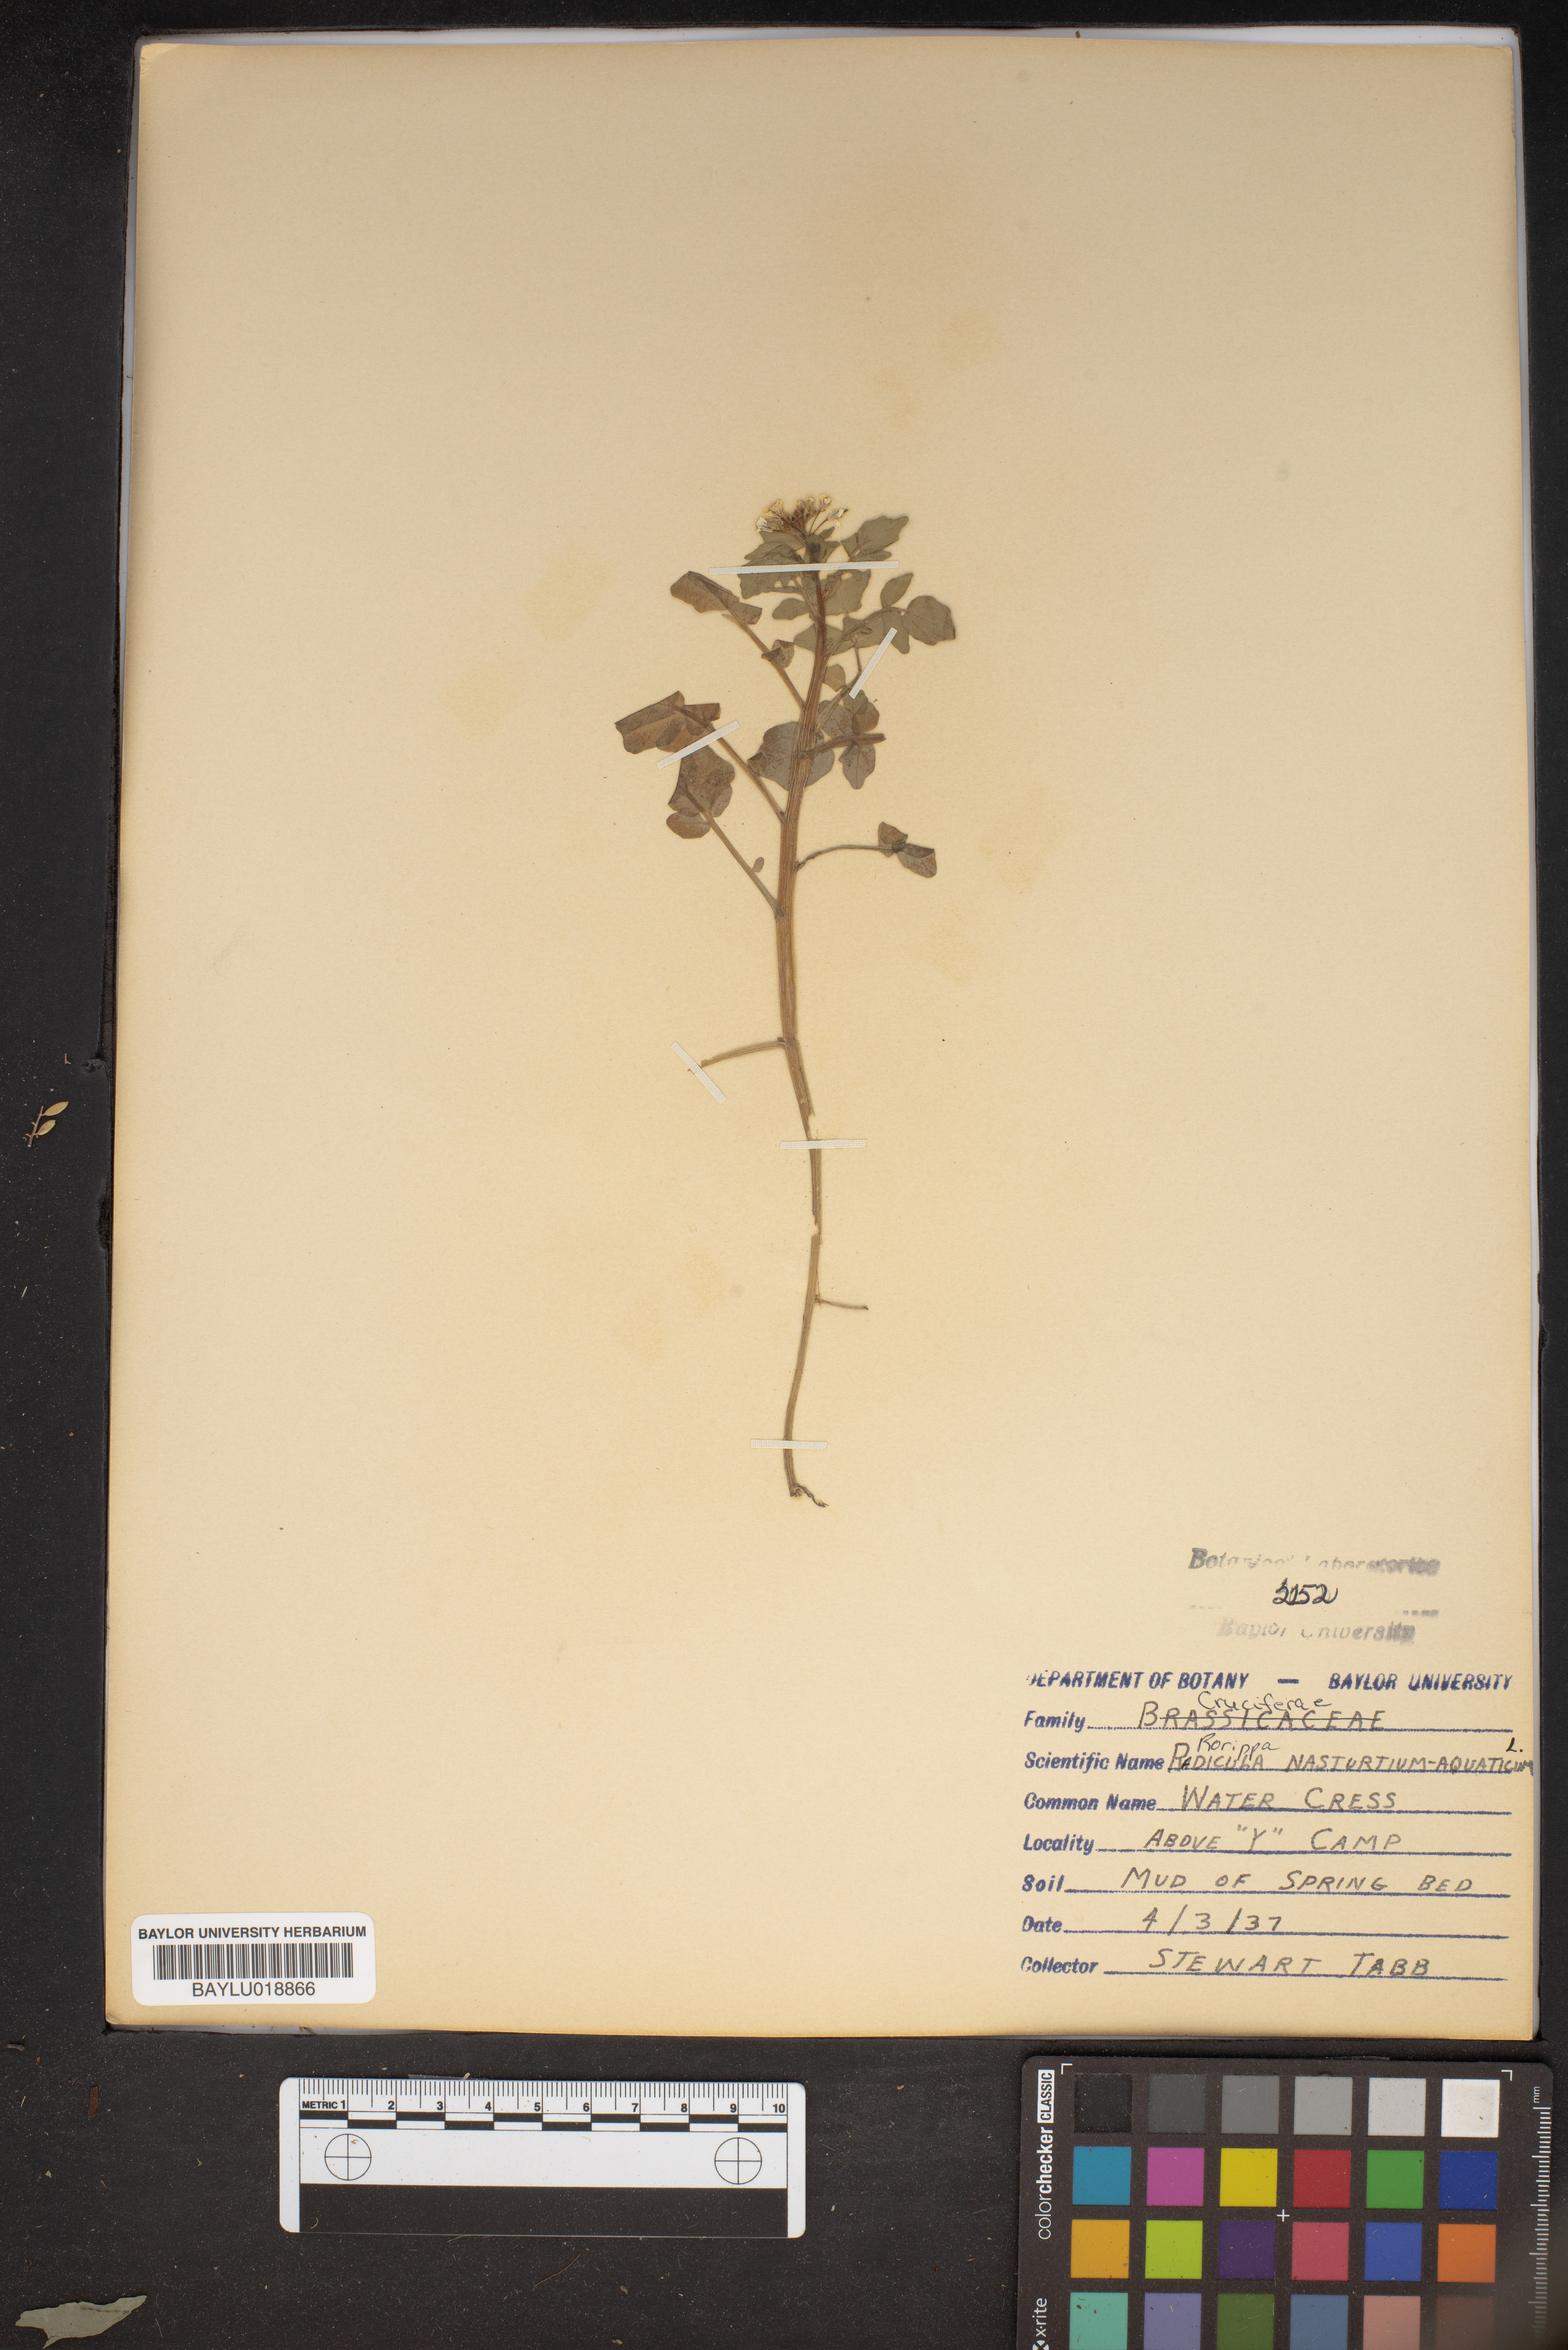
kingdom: Plantae
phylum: Tracheophyta
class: Magnoliopsida
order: Brassicales
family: Brassicaceae
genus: Nasturtium
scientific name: Nasturtium officinale
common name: Watercress
